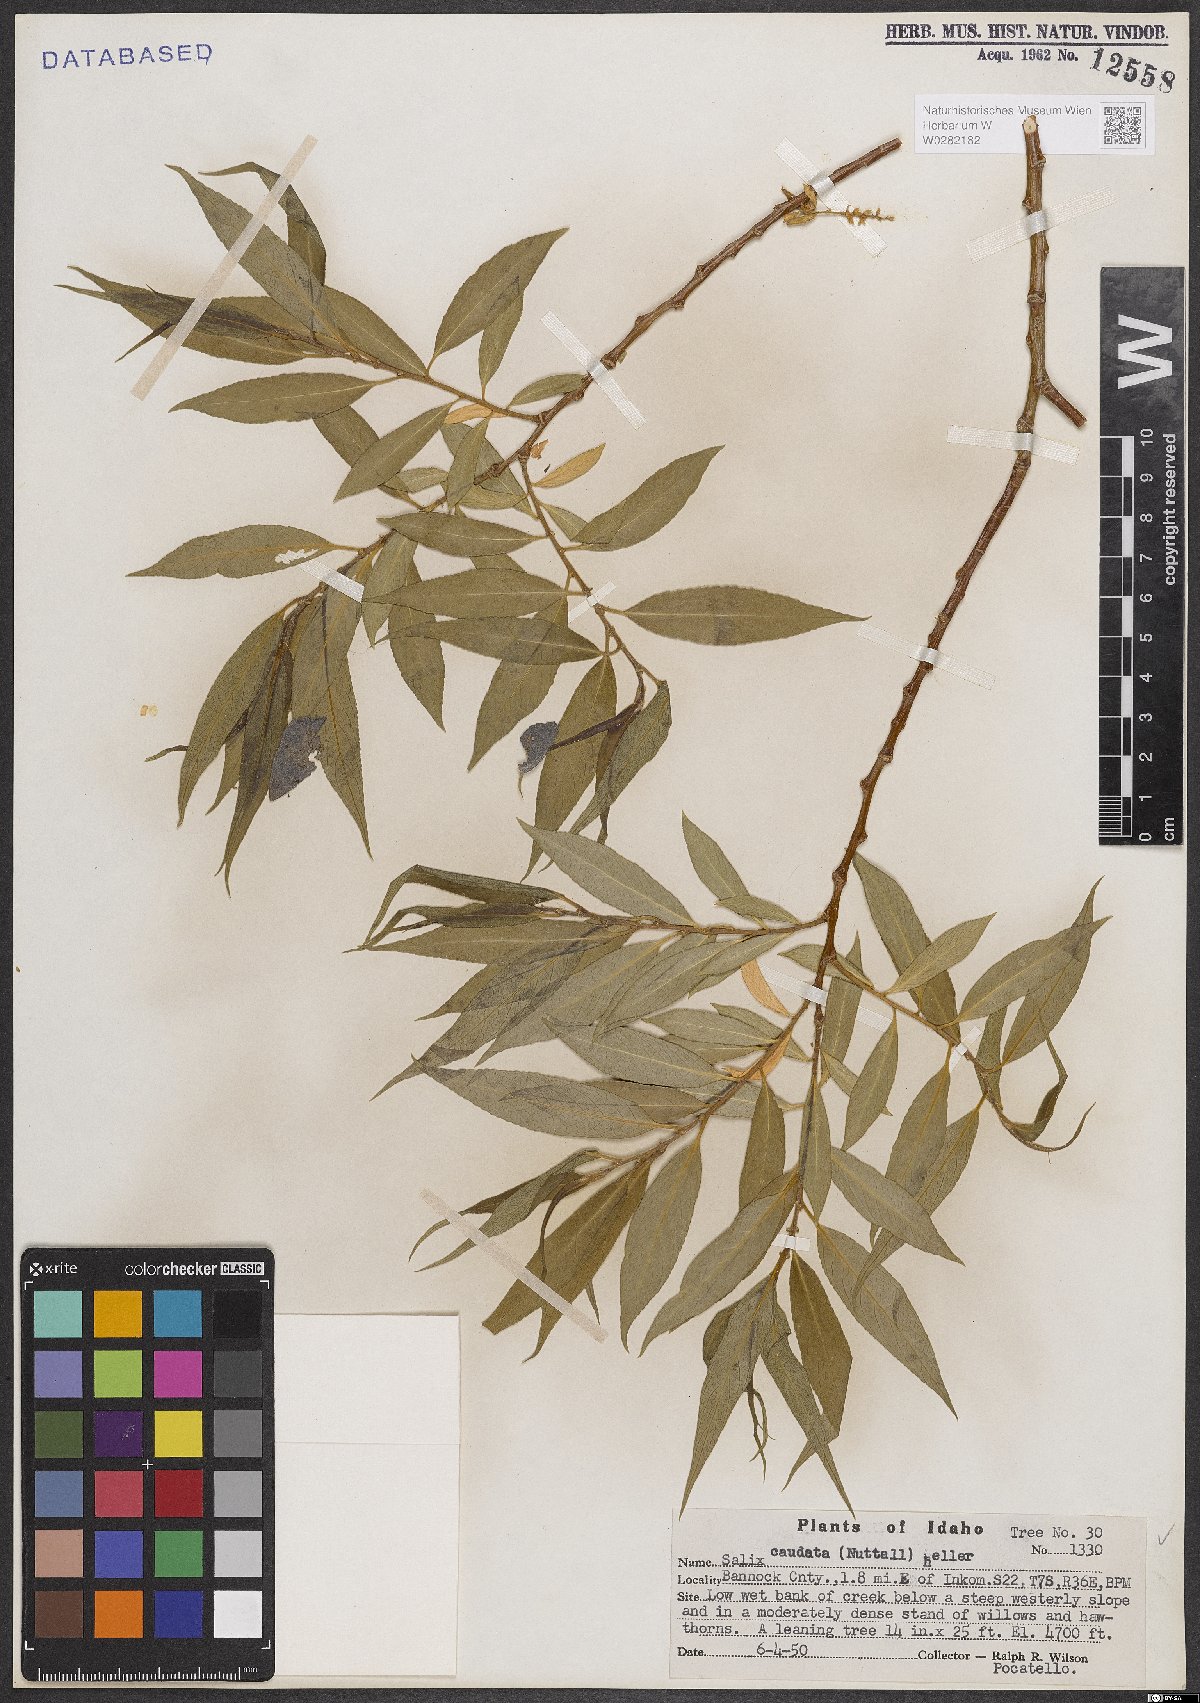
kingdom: Plantae
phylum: Tracheophyta
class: Magnoliopsida
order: Malpighiales
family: Salicaceae
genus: Salix
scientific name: Salix lucida
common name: Shining willow
